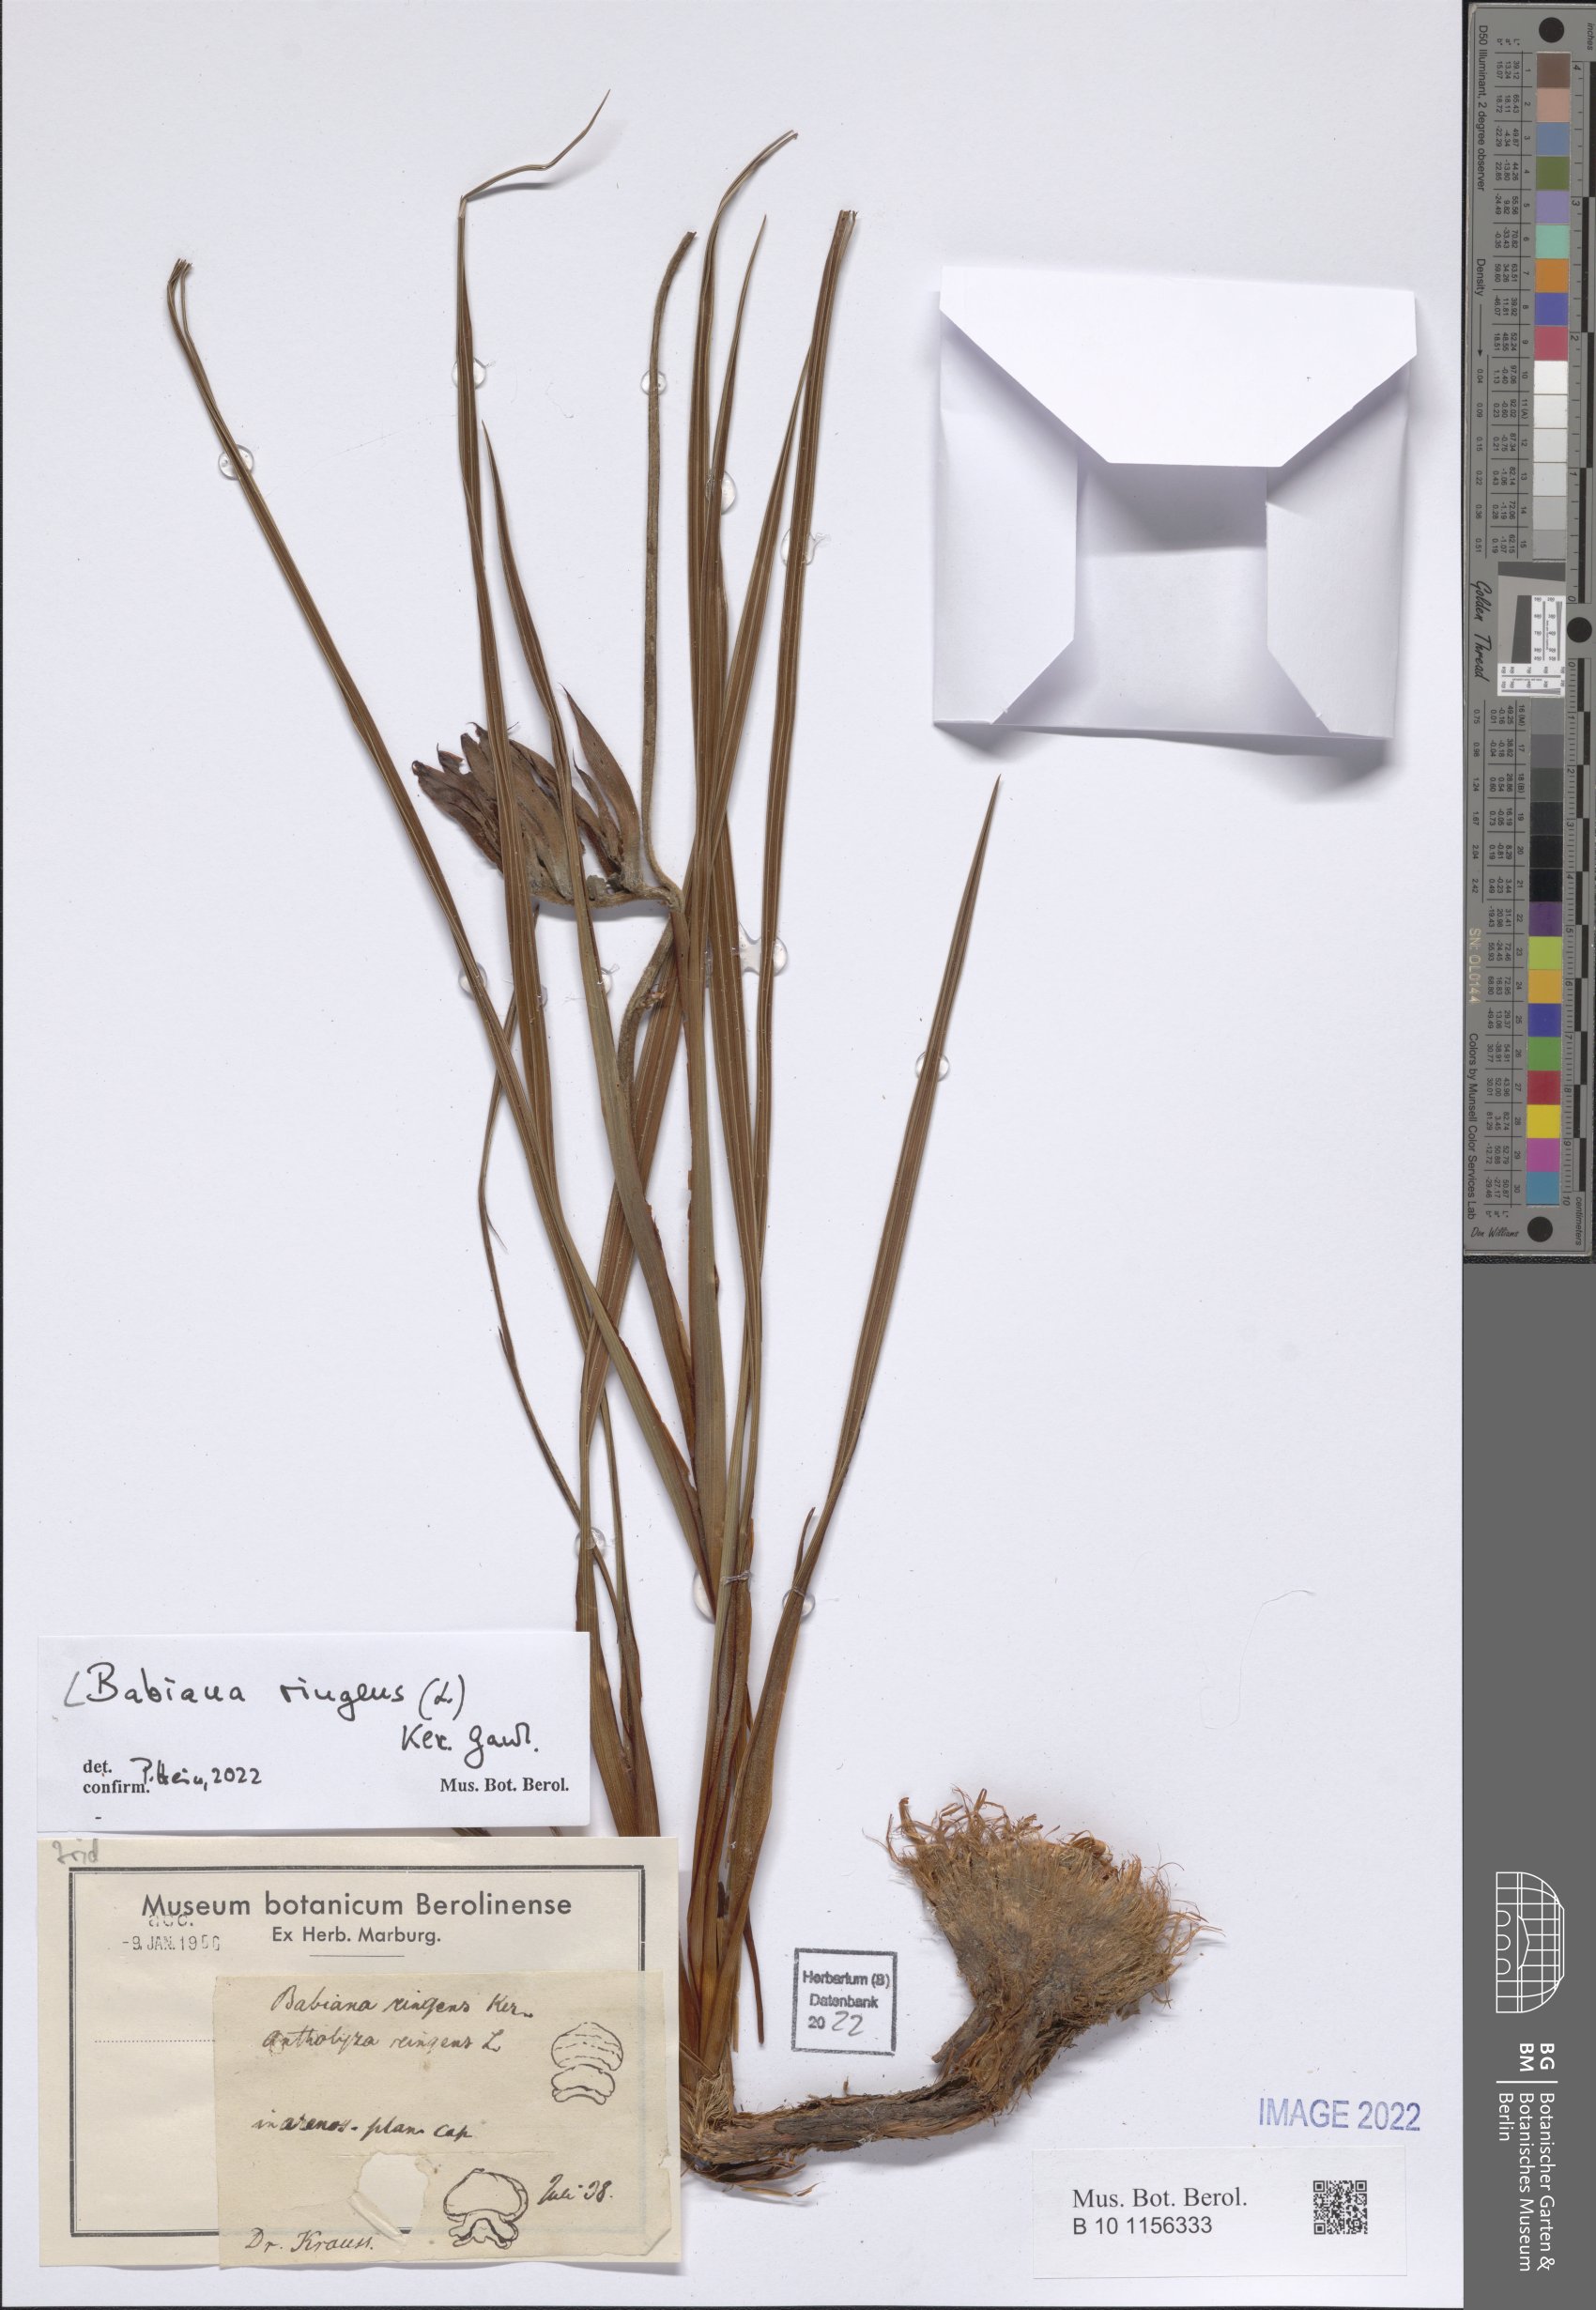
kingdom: Plantae
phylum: Tracheophyta
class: Liliopsida
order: Asparagales
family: Iridaceae
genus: Babiana
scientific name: Babiana ringens
